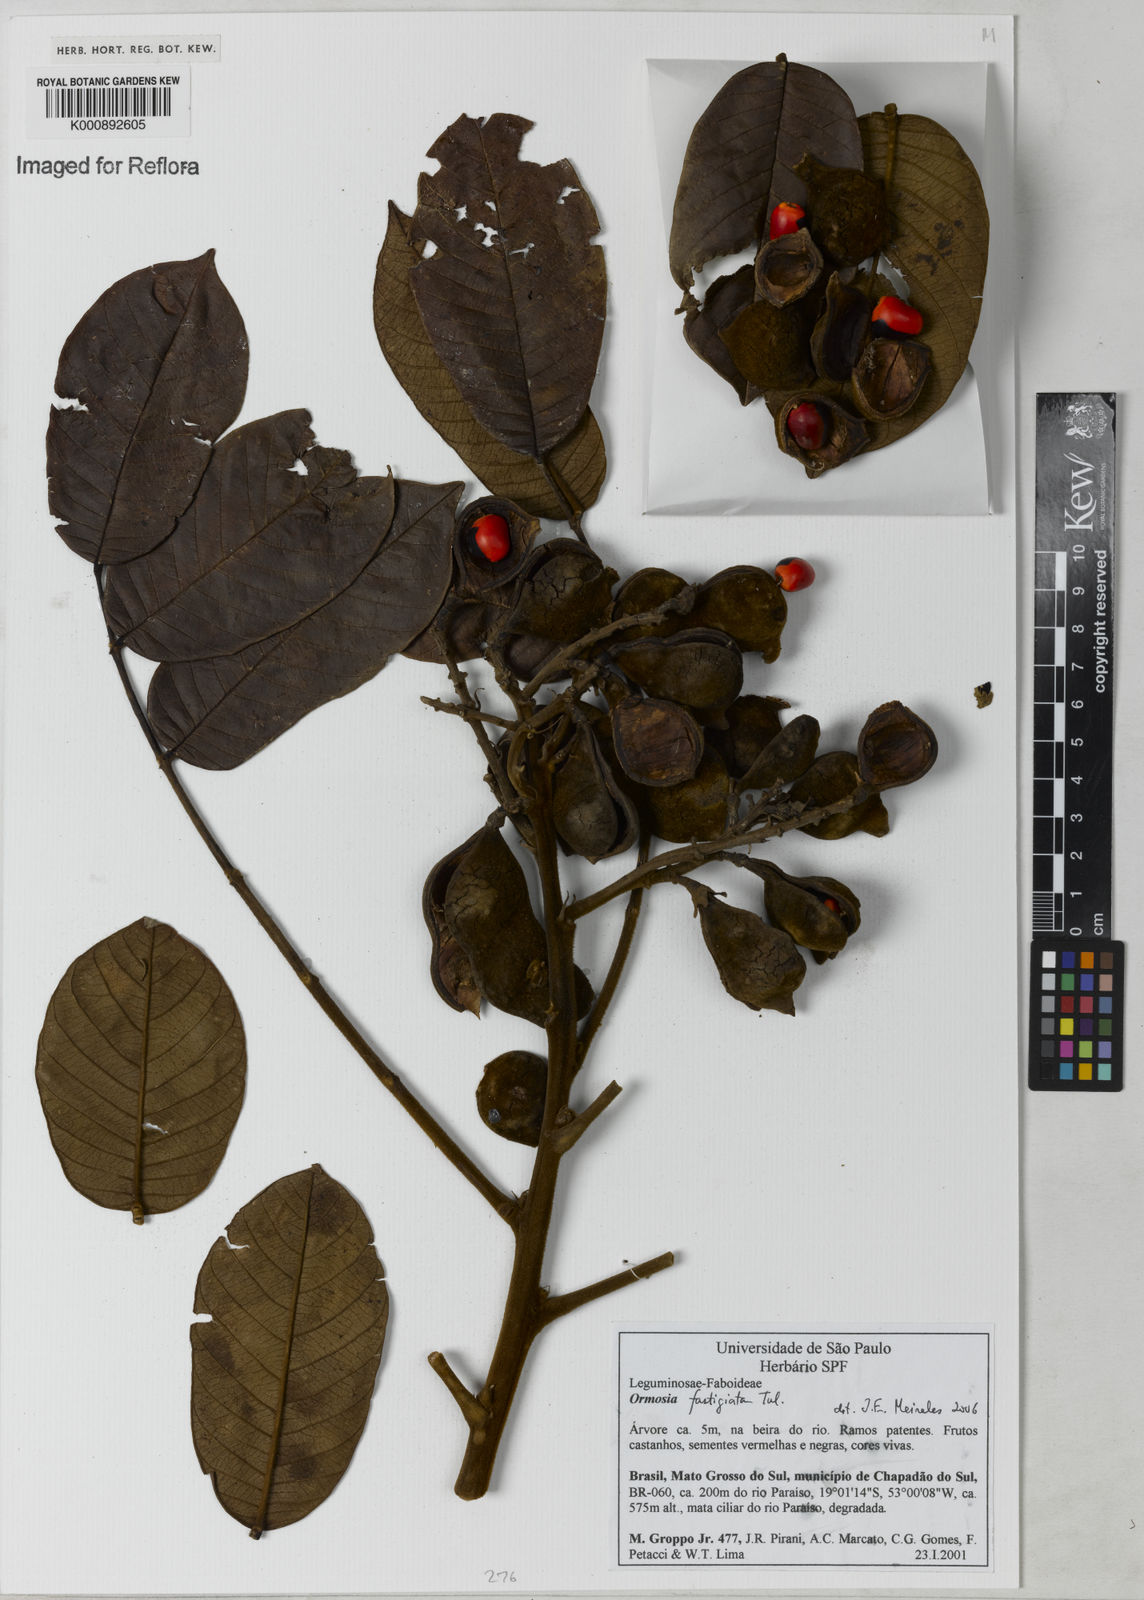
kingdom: Plantae
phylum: Tracheophyta
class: Magnoliopsida
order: Fabales
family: Fabaceae
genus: Ormosia
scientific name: Ormosia fastigiata
